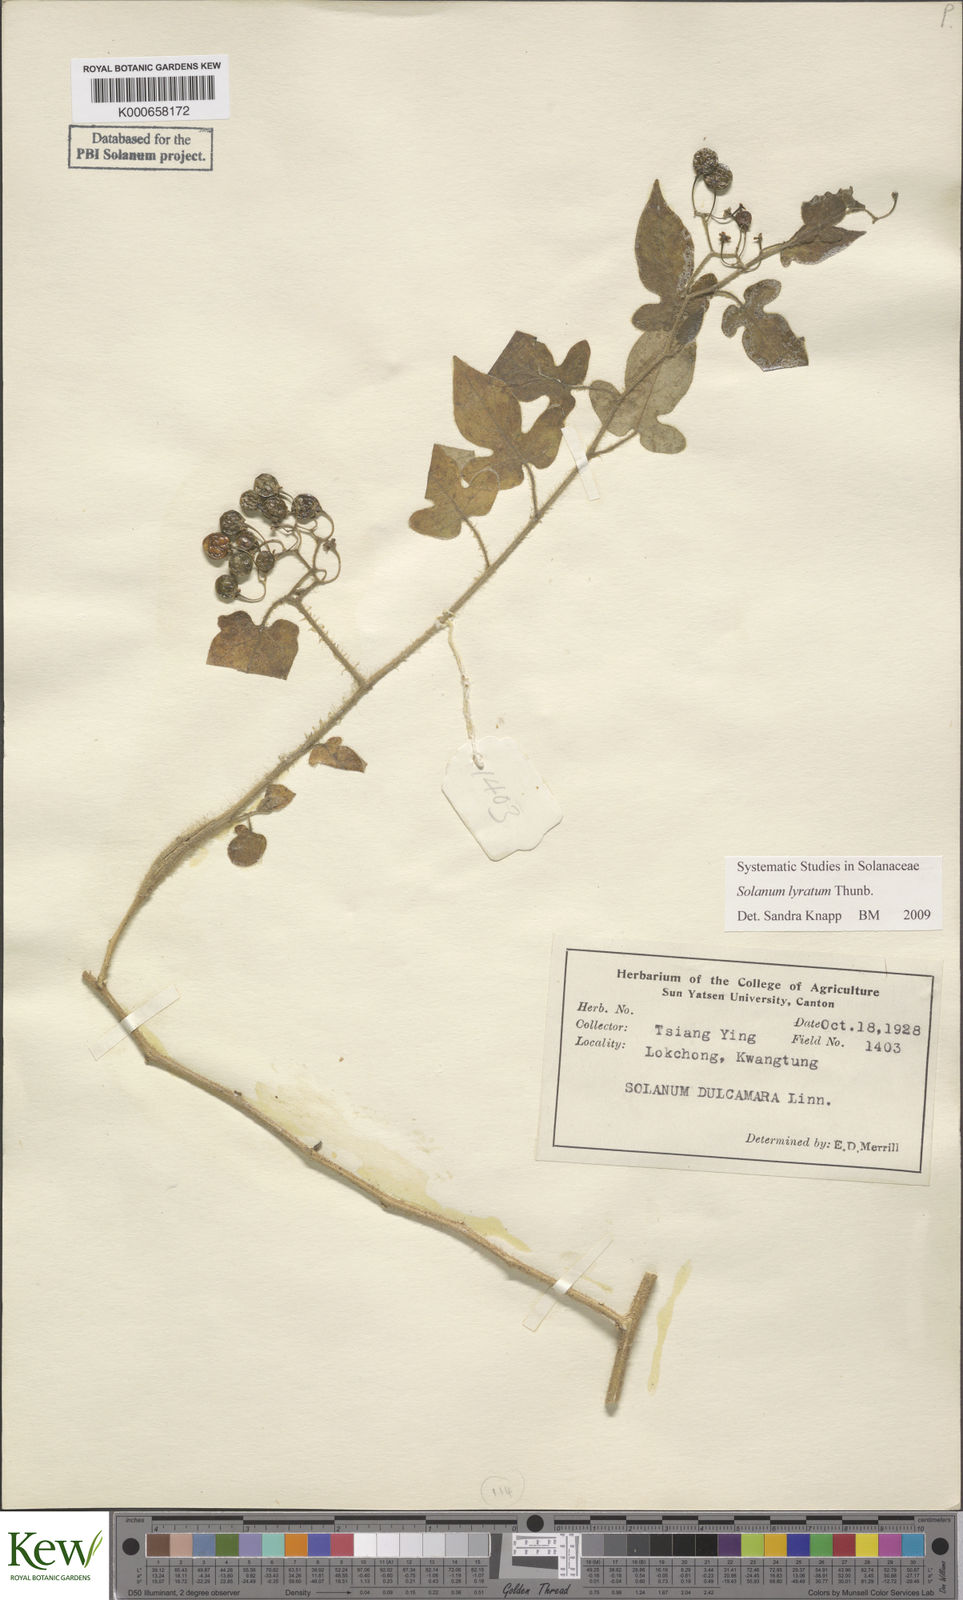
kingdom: Plantae
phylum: Tracheophyta
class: Magnoliopsida
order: Solanales
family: Solanaceae
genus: Solanum
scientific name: Solanum lyratum
